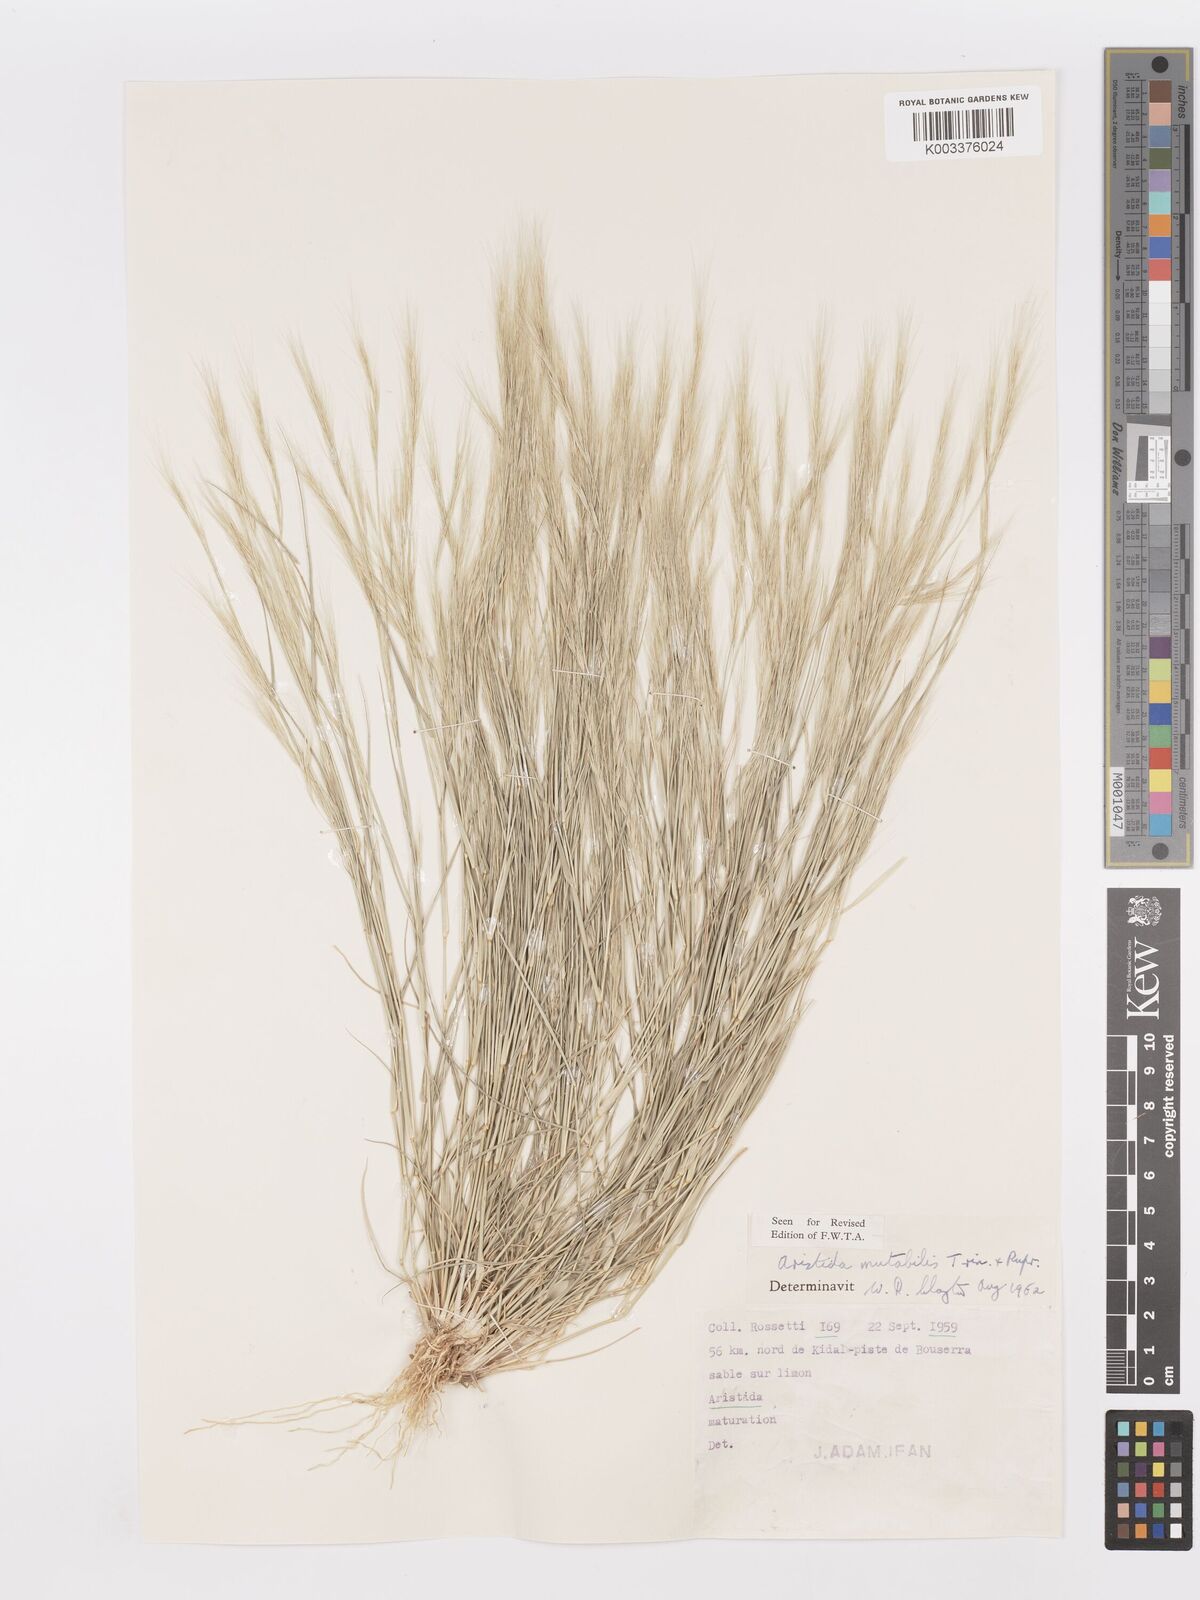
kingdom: Plantae
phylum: Tracheophyta
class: Liliopsida
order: Poales
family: Poaceae
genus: Aristida
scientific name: Aristida mutabilis
